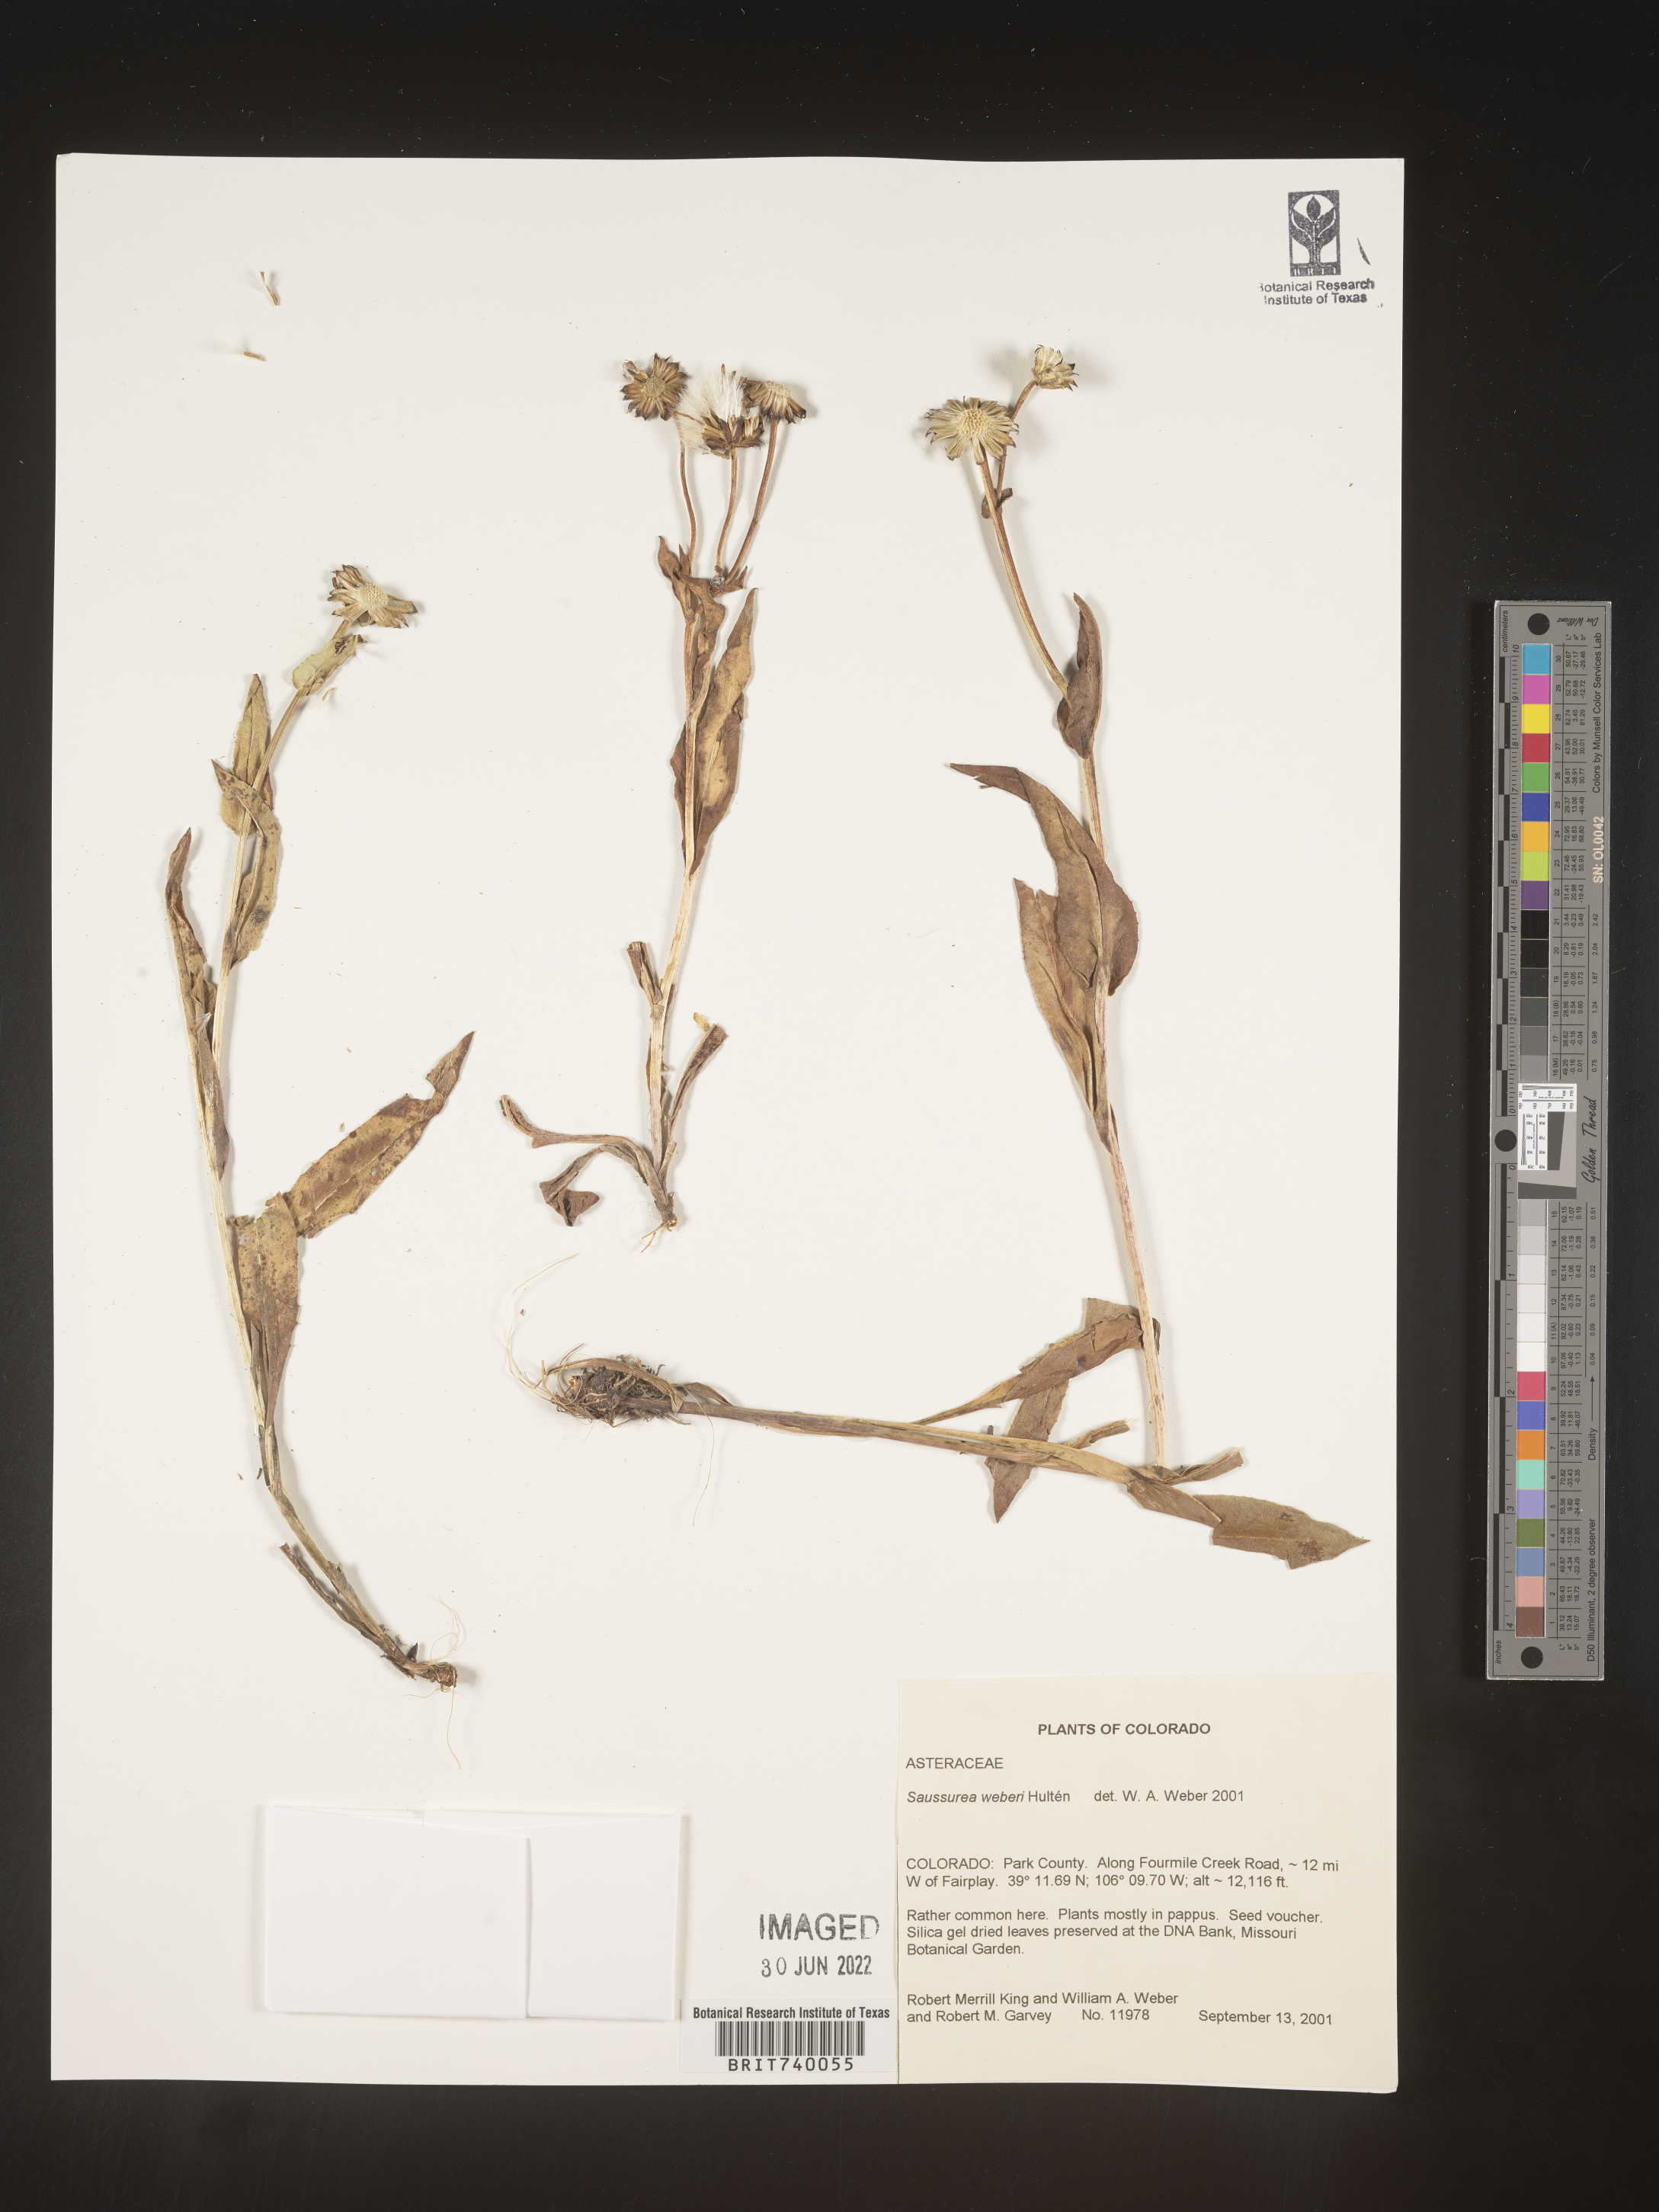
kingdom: Plantae
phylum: Tracheophyta
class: Magnoliopsida
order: Asterales
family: Asteraceae
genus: Saussurea
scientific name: Saussurea
